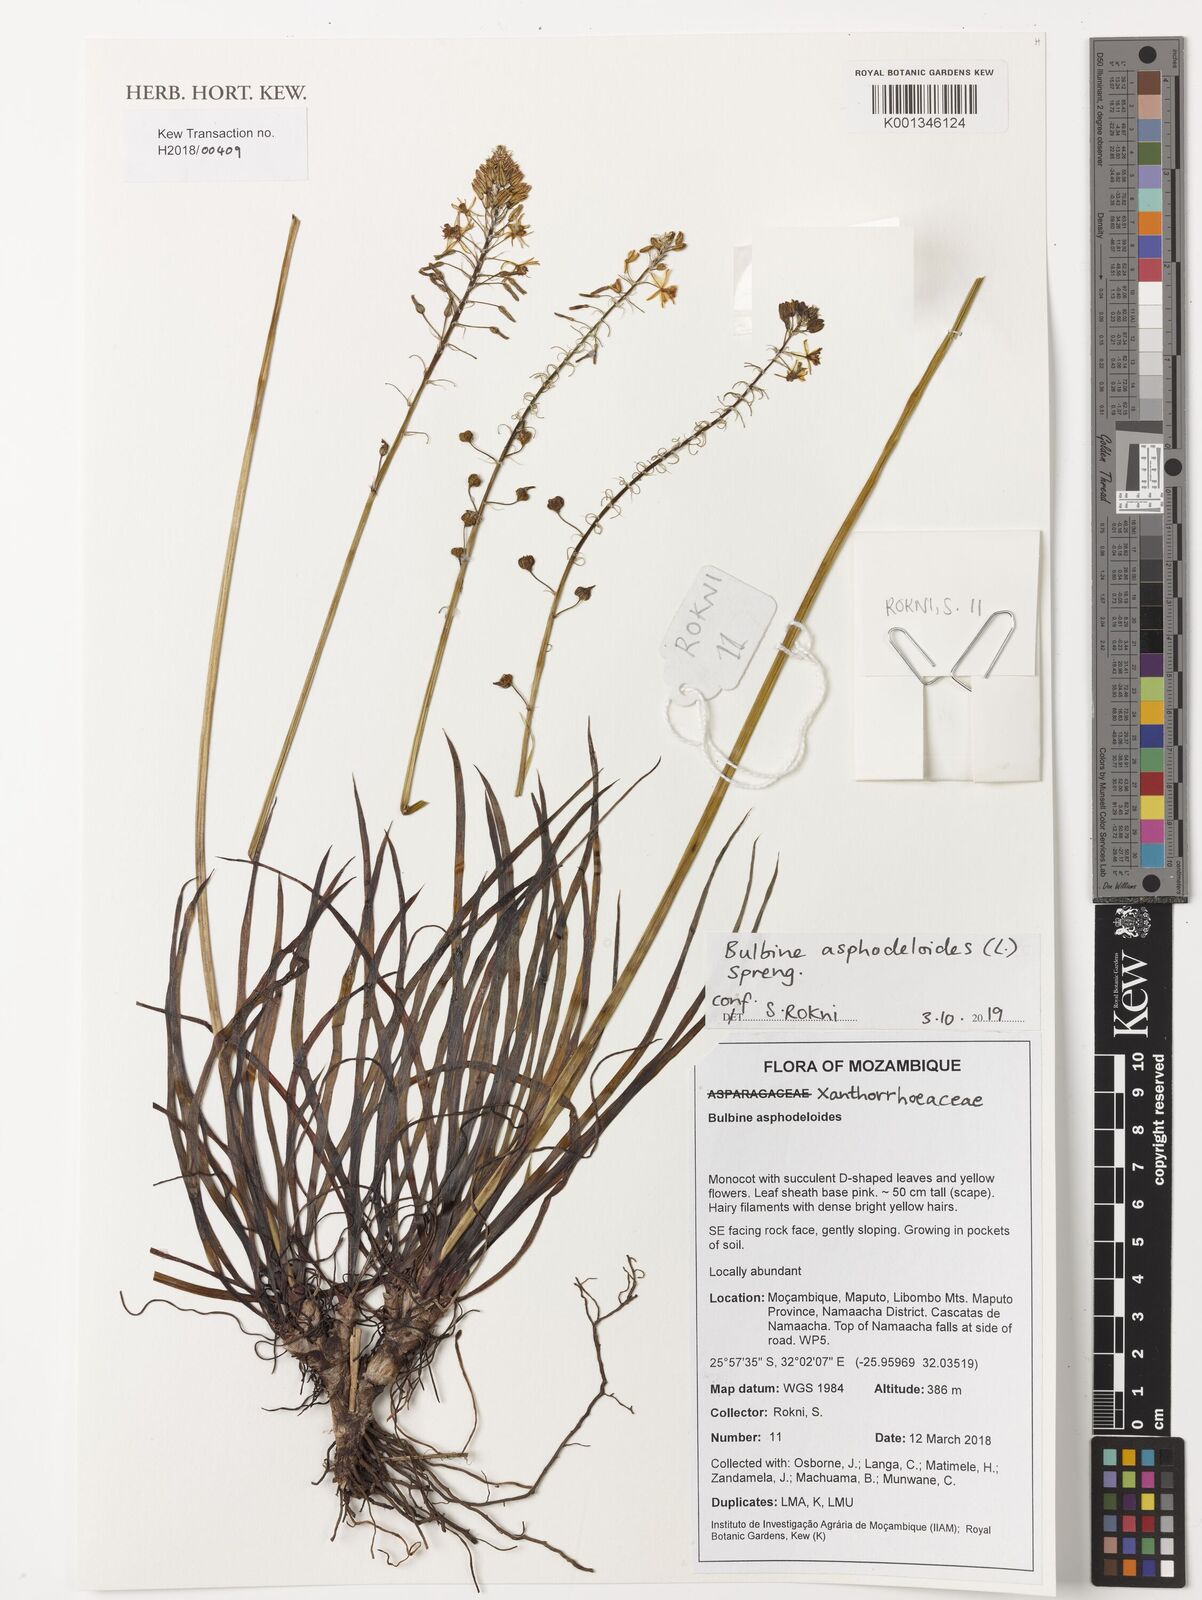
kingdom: Plantae
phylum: Tracheophyta
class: Liliopsida
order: Asparagales
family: Asphodelaceae
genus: Bulbine
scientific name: Bulbine asphodeloides
